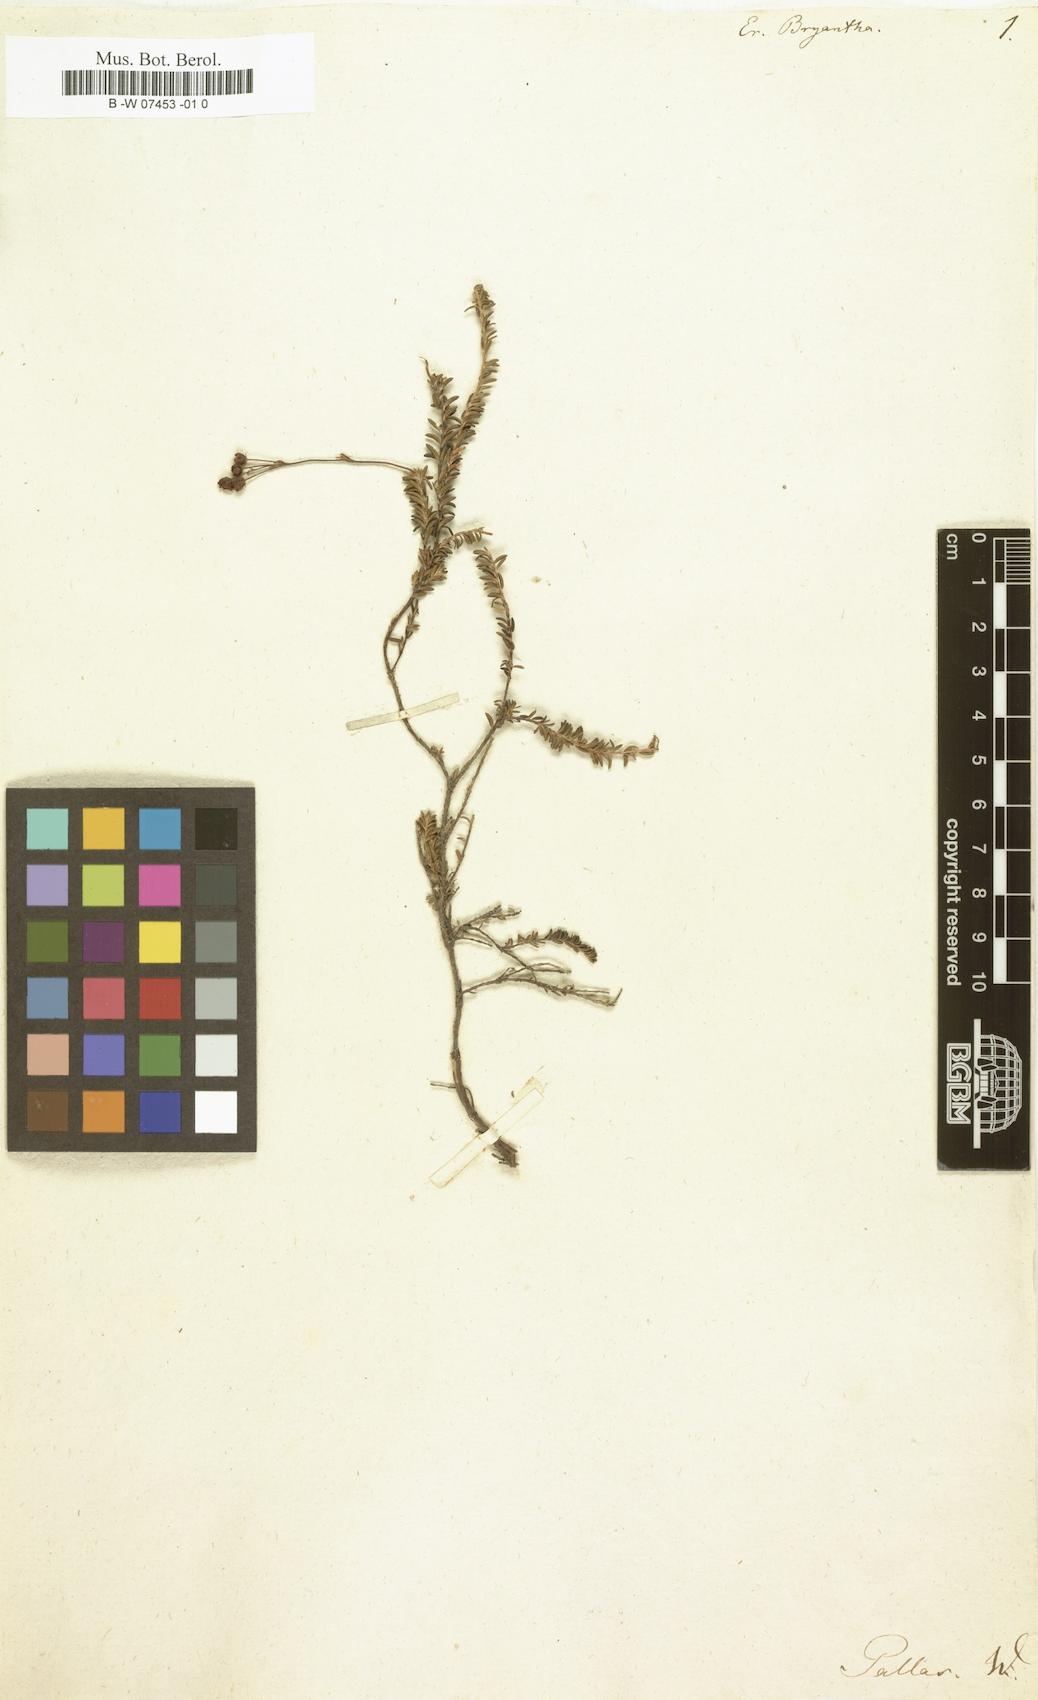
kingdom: Plantae
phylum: Tracheophyta
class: Magnoliopsida
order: Ericales
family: Ericaceae
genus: Bryanthus
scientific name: Bryanthus musciformis
